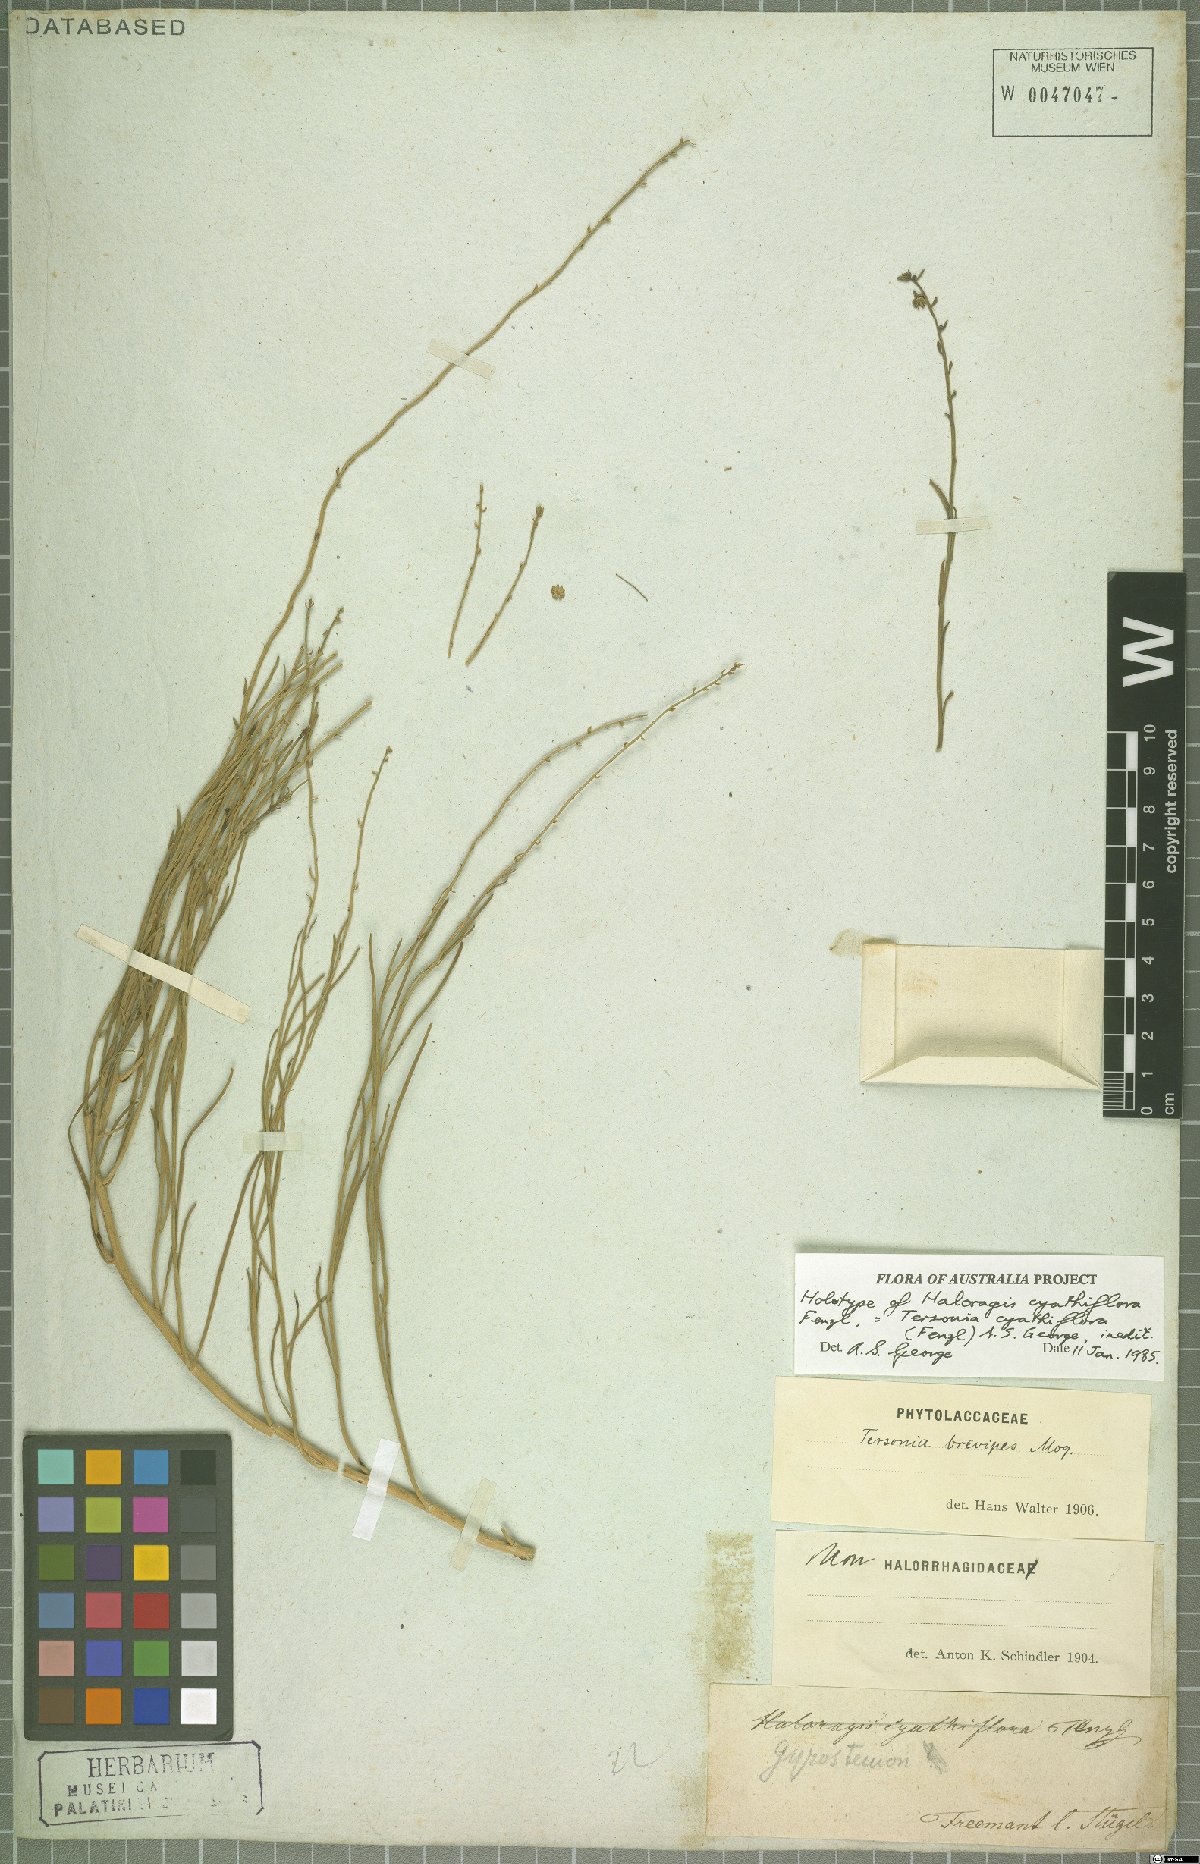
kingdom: Plantae
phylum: Tracheophyta
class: Magnoliopsida
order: Brassicales
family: Gyrostemonaceae
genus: Tersonia
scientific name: Tersonia cyathiflora
